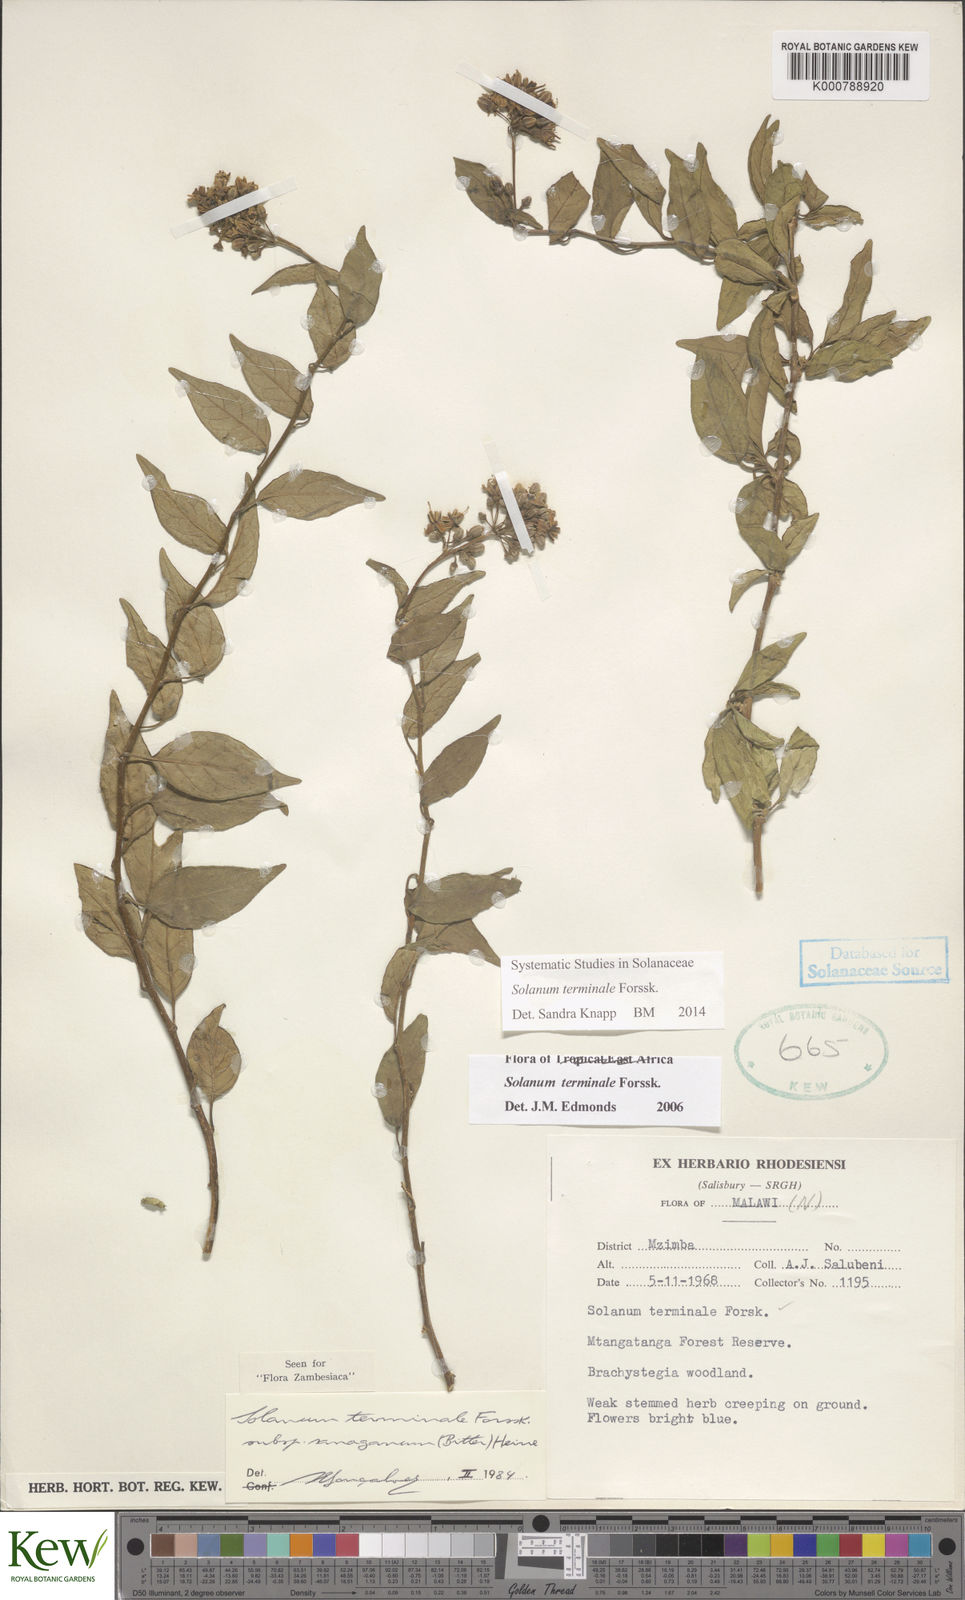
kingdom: Plantae
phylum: Tracheophyta
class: Magnoliopsida
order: Solanales
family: Solanaceae
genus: Solanum
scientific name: Solanum terminale
